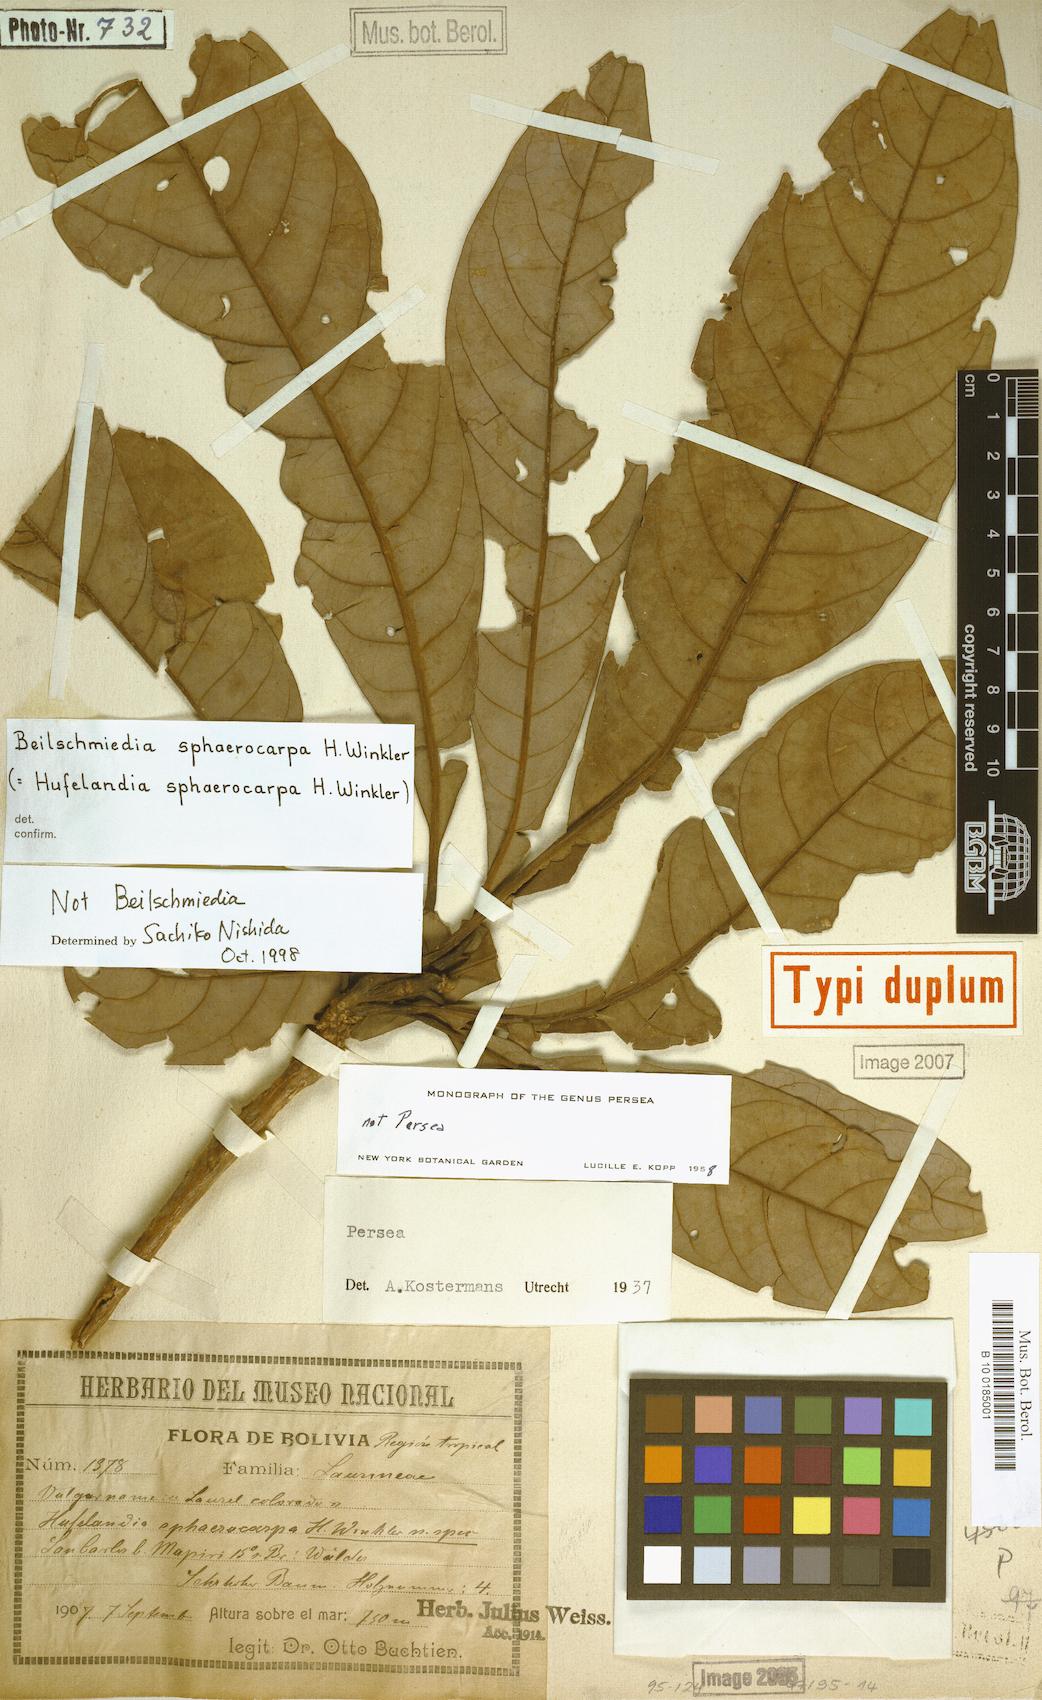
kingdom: Plantae
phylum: Tracheophyta
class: Magnoliopsida
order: Laurales
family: Lauraceae
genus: Persea
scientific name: Persea sphaerocarpa
